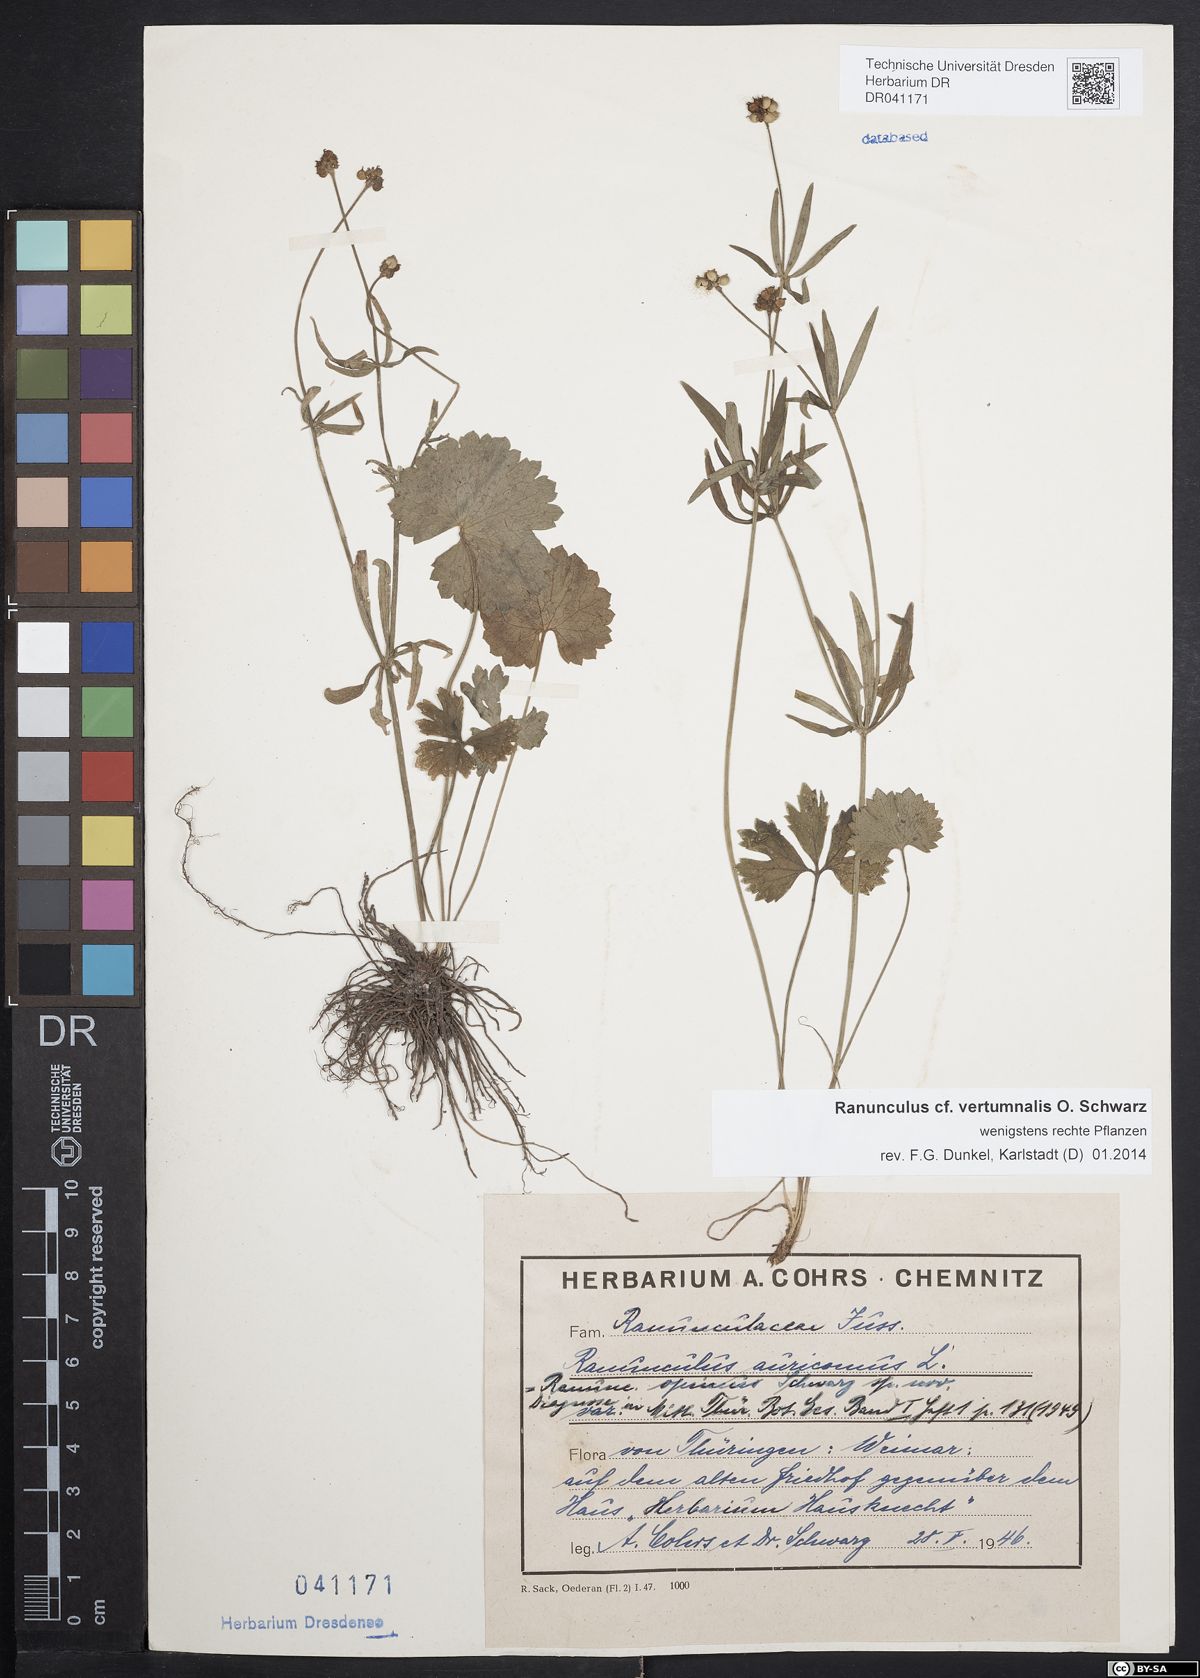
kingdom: Plantae
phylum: Tracheophyta
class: Magnoliopsida
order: Ranunculales
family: Ranunculaceae
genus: Ranunculus
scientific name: Ranunculus vertumnalis
